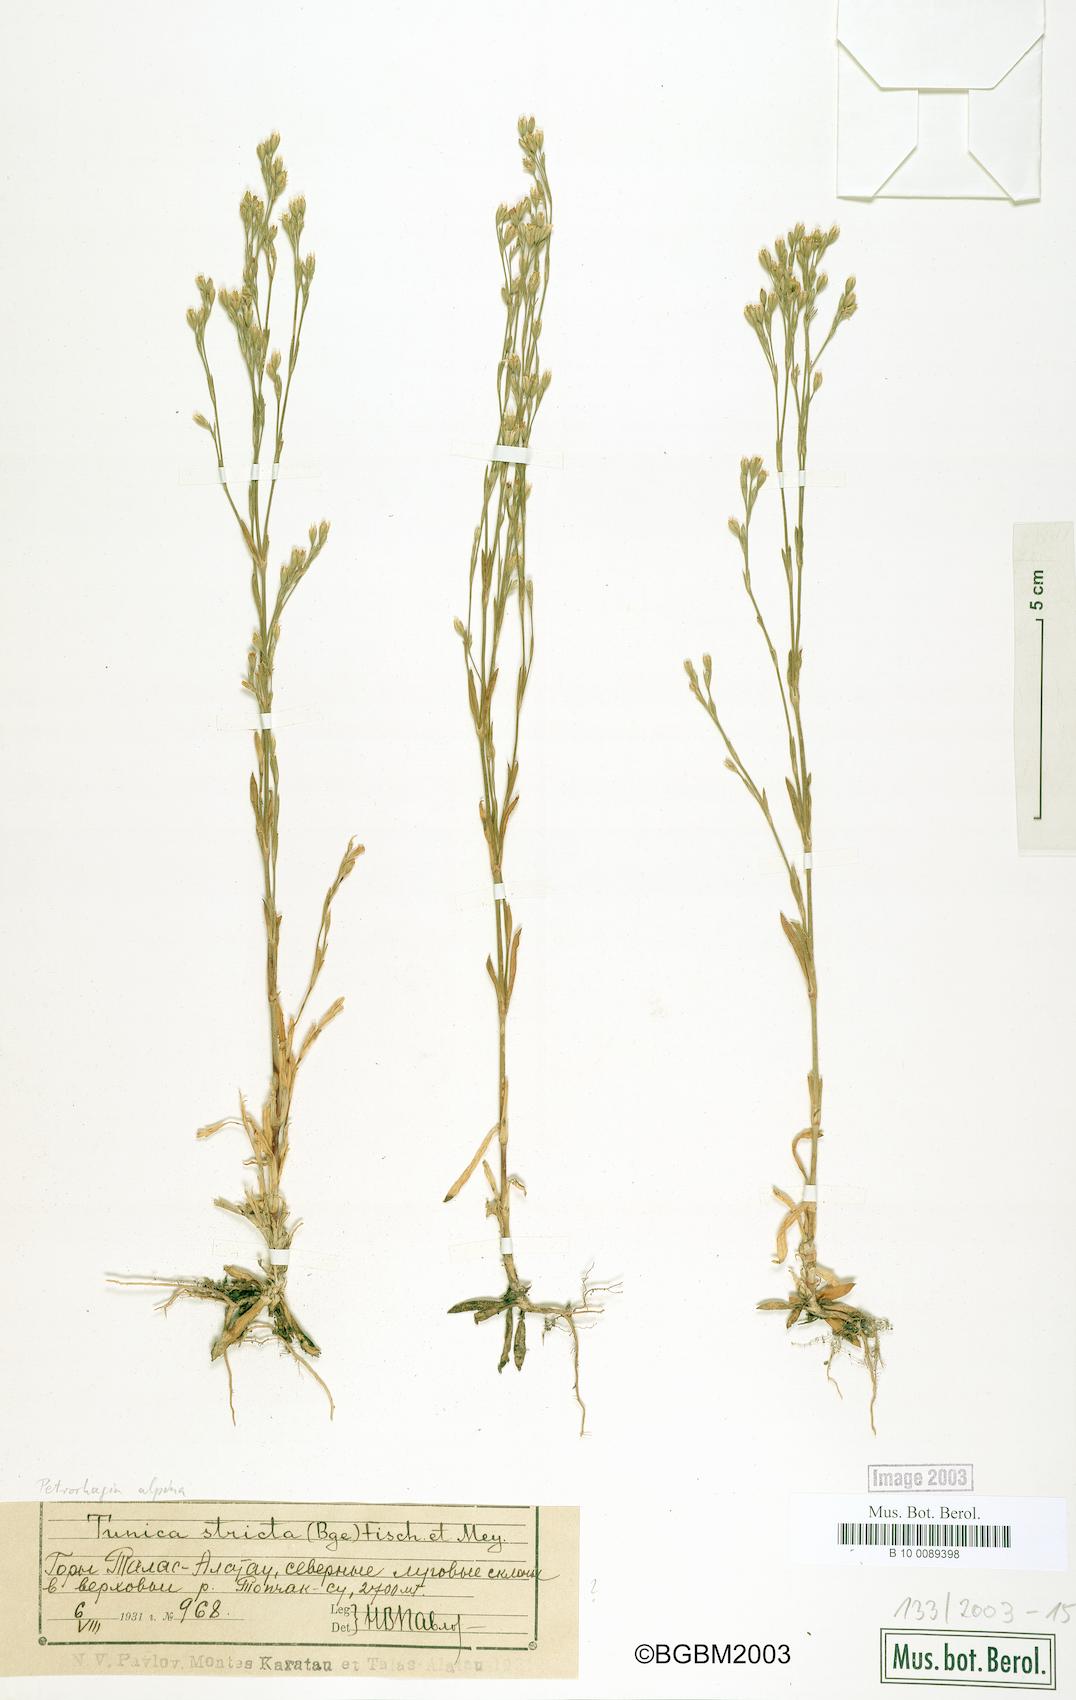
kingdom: Plantae
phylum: Tracheophyta
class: Magnoliopsida
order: Caryophyllales
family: Caryophyllaceae
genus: Petrorhagia
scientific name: Petrorhagia alpina
